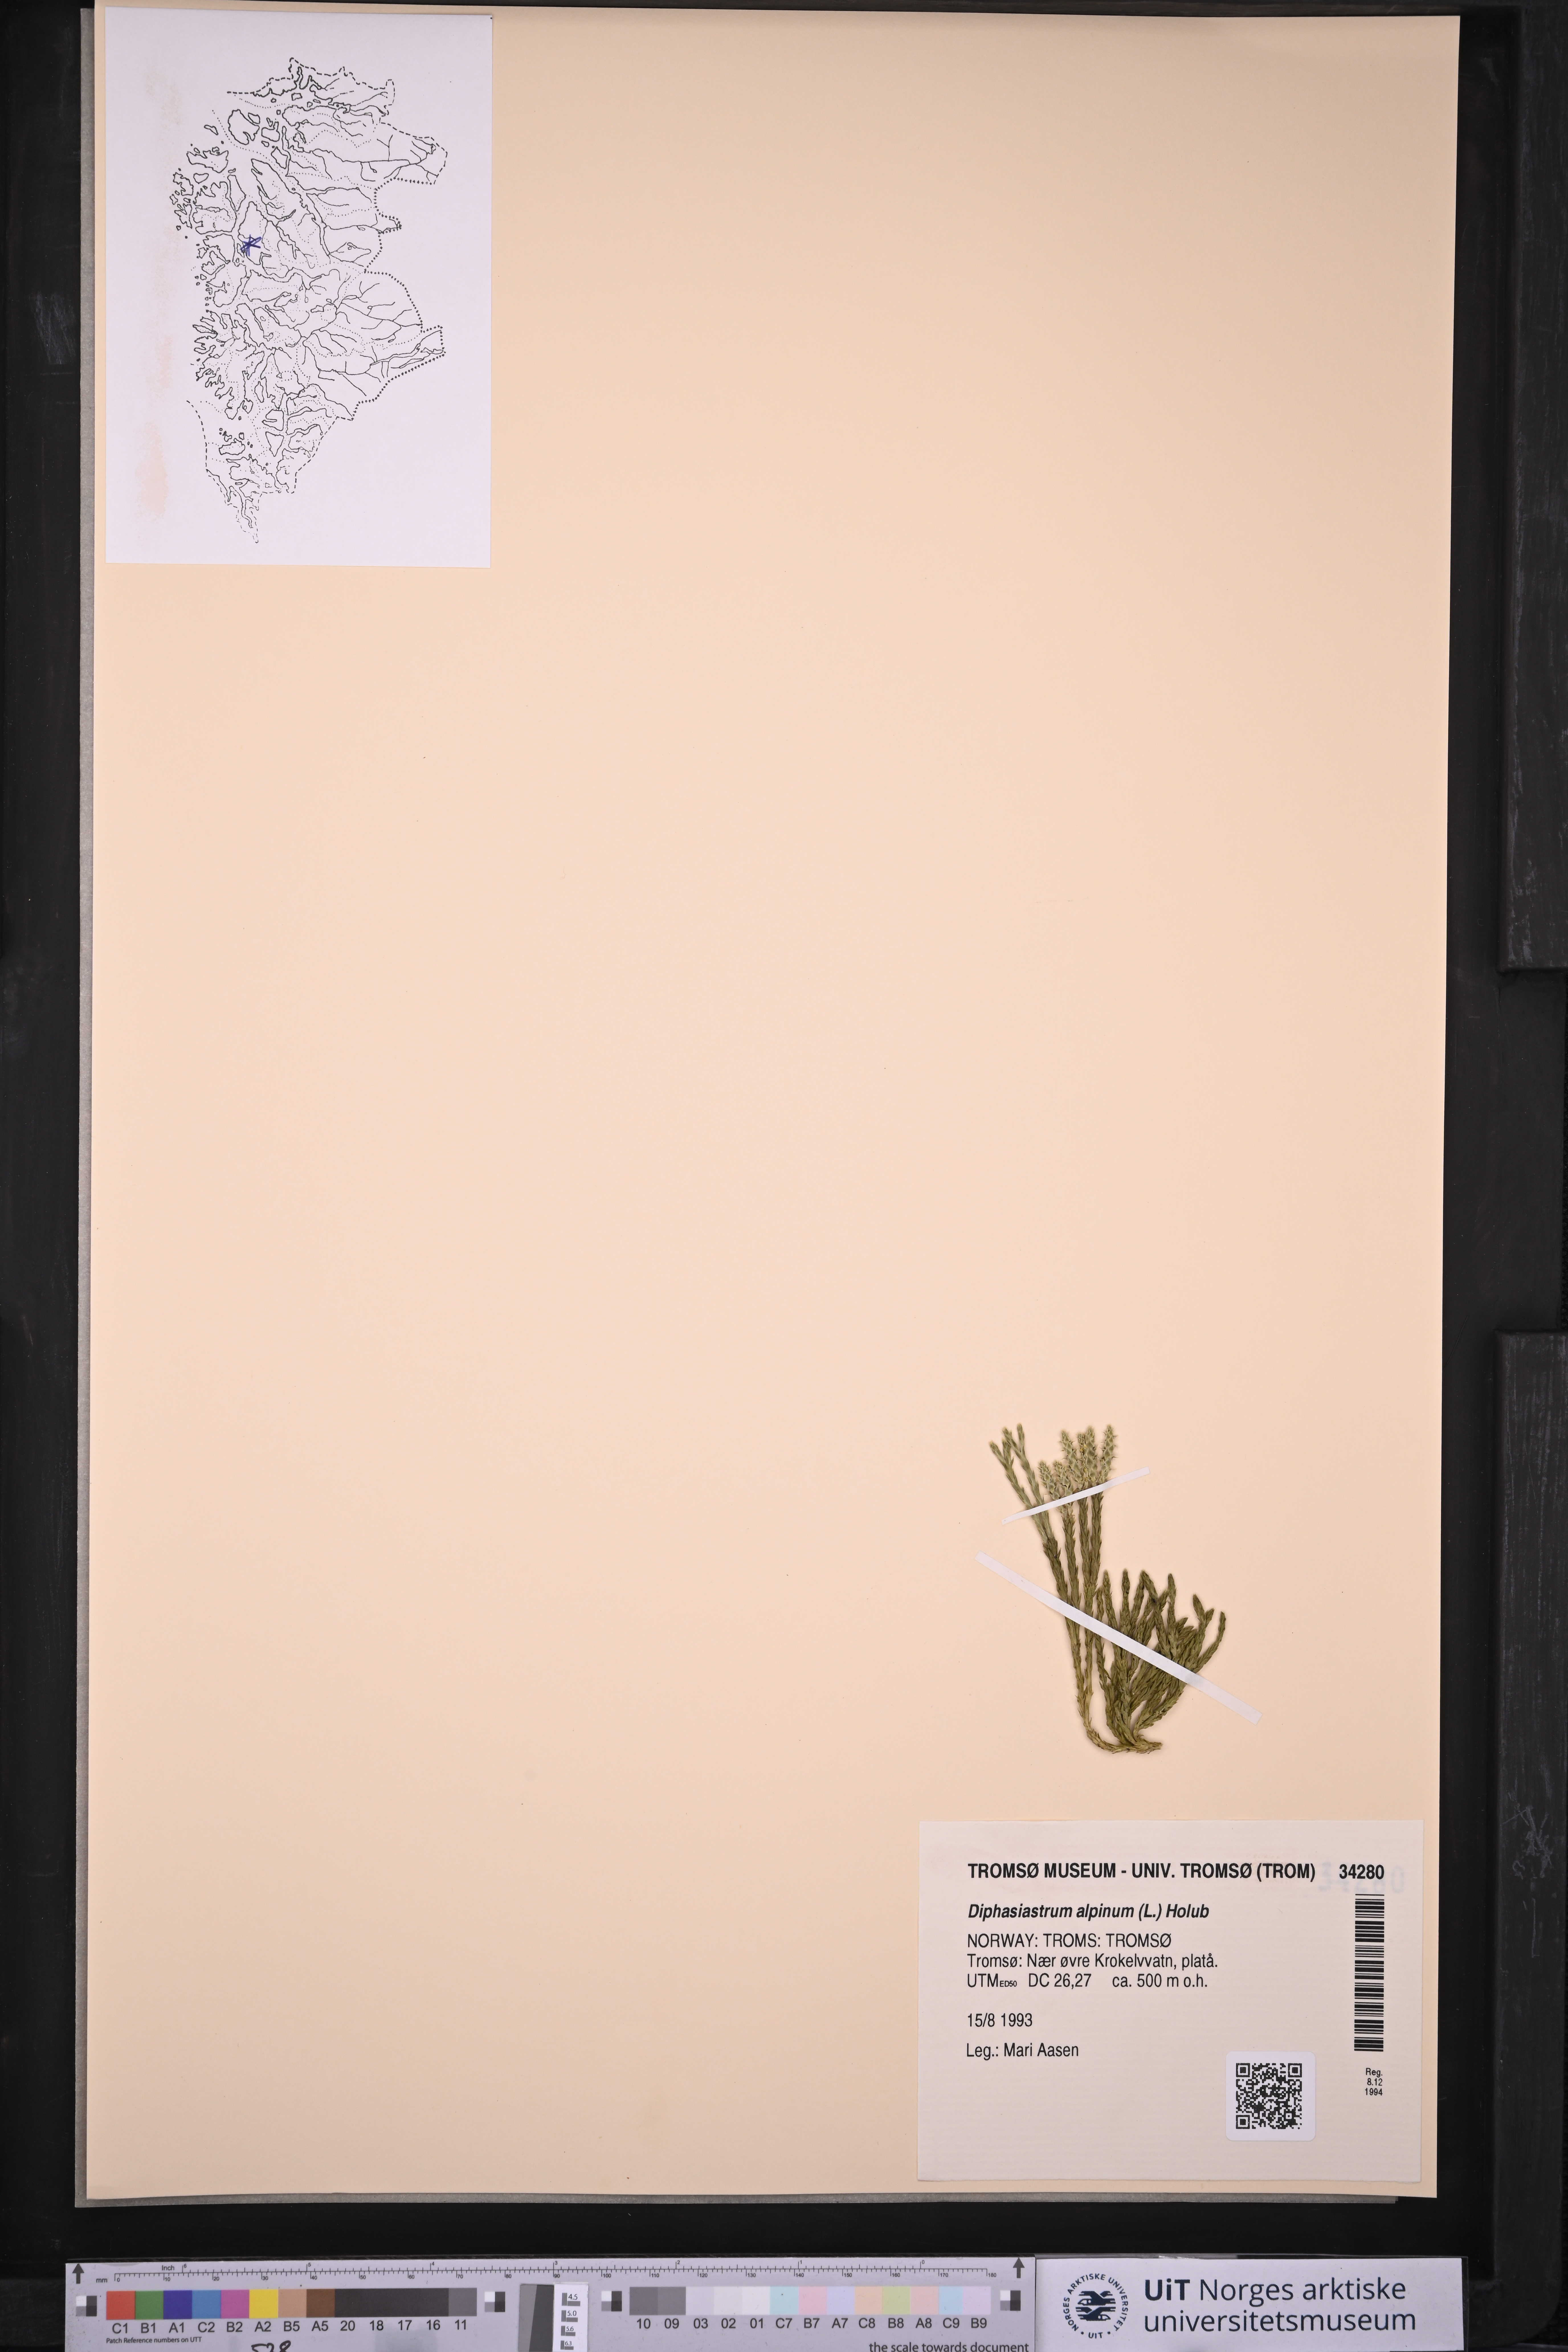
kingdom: Plantae
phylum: Tracheophyta
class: Lycopodiopsida
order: Lycopodiales
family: Lycopodiaceae
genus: Diphasiastrum
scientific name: Diphasiastrum alpinum
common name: Alpine clubmoss
